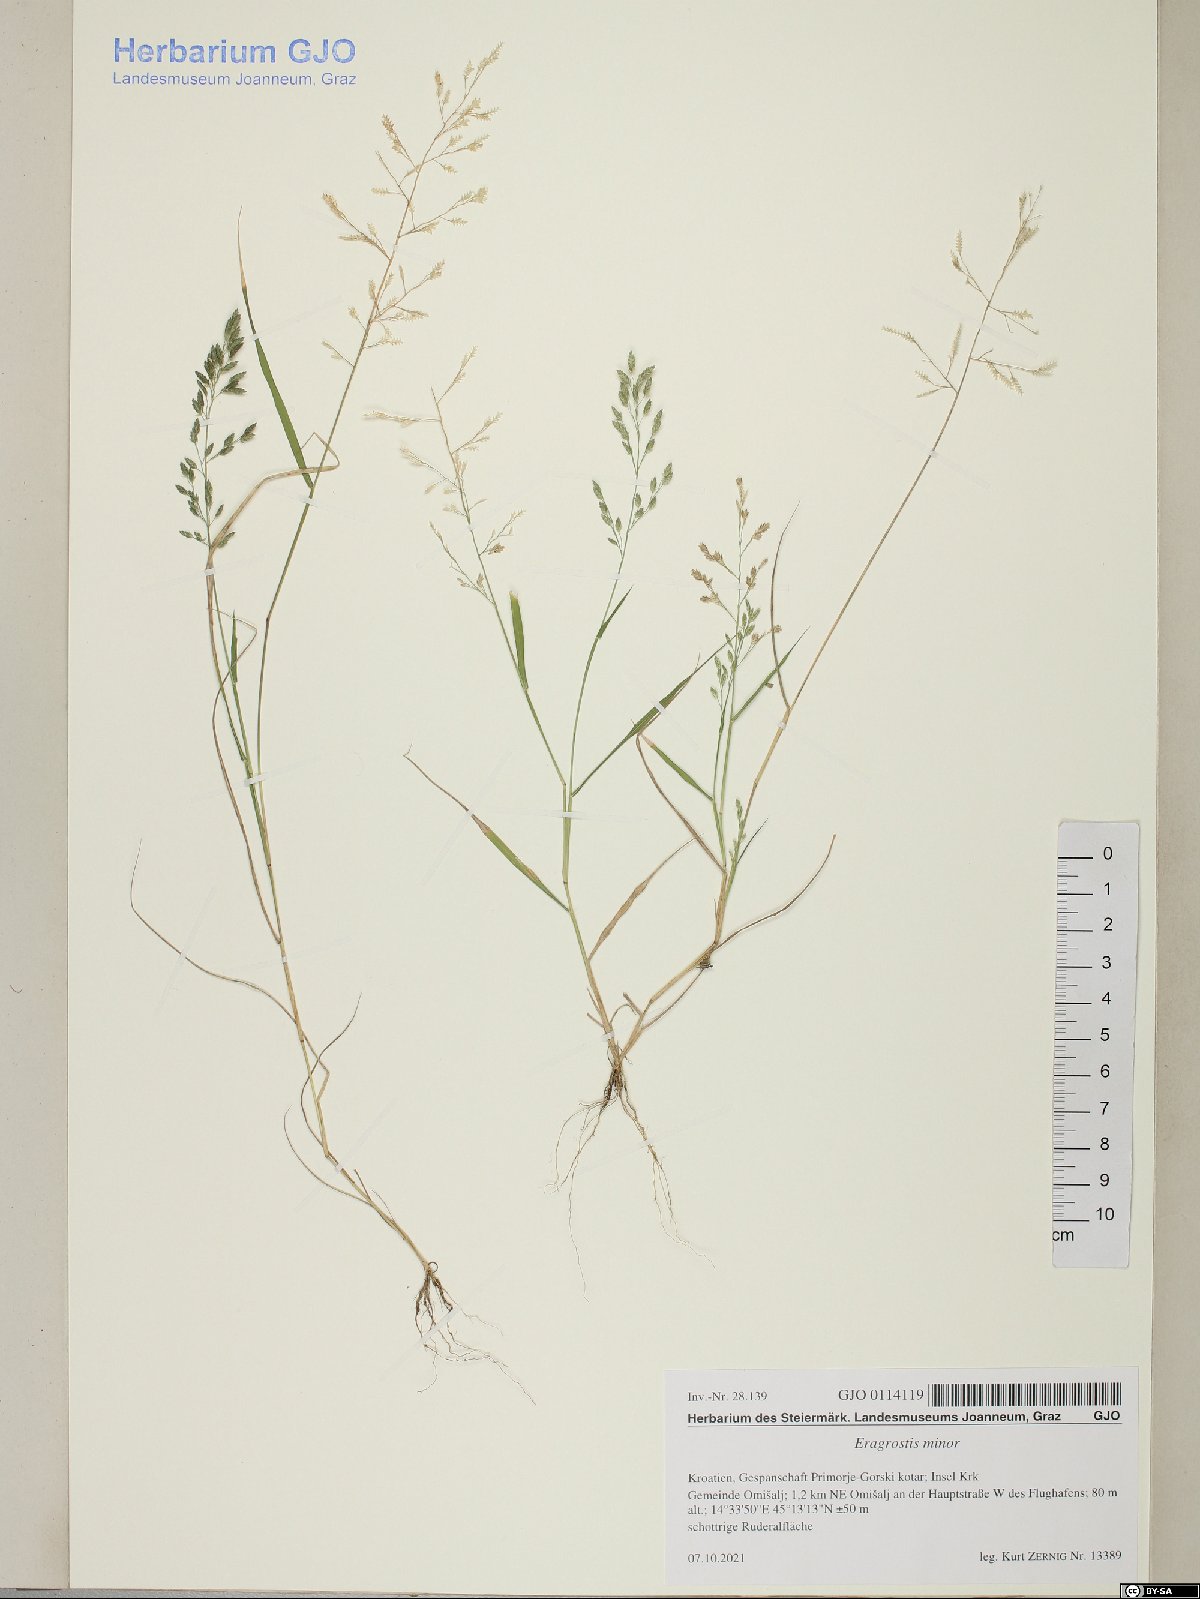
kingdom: Plantae
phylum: Tracheophyta
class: Liliopsida
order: Poales
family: Poaceae
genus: Eragrostis
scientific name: Eragrostis minor
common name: Small love-grass
